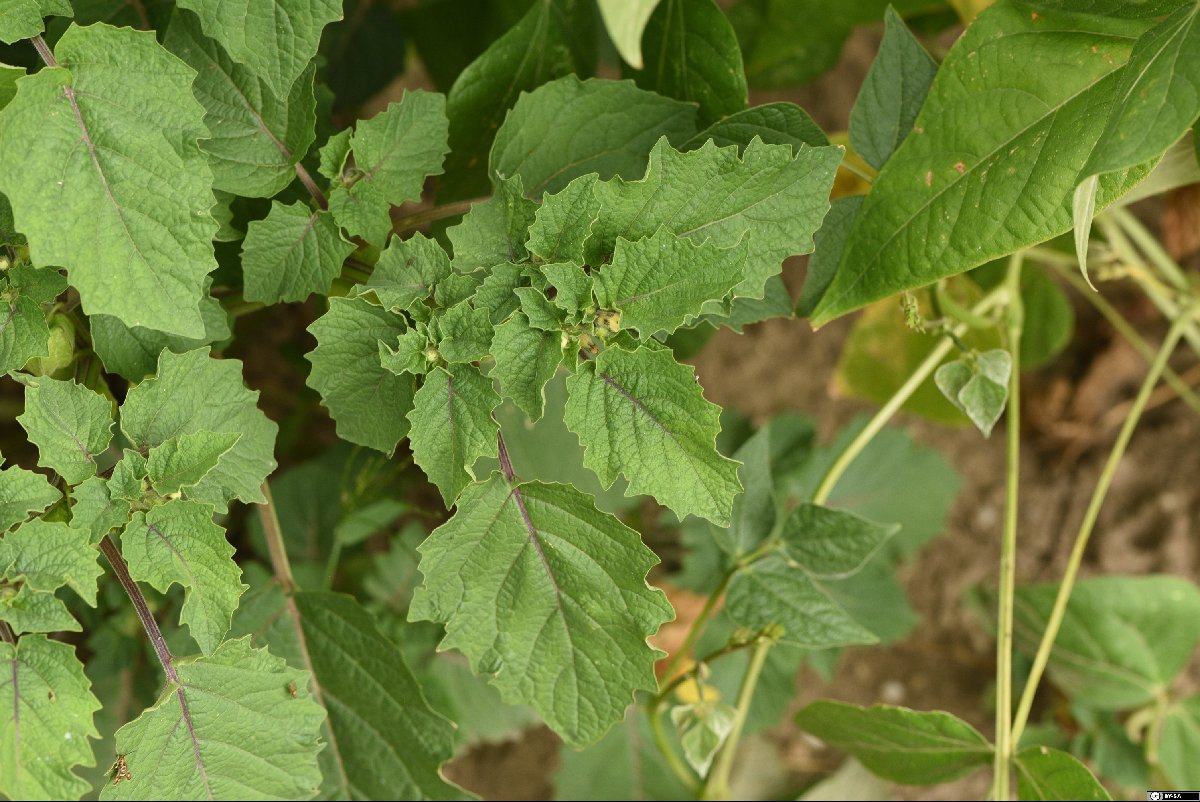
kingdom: Plantae
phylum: Tracheophyta
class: Magnoliopsida
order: Solanales
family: Solanaceae
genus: Physalis
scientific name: Physalis grisea
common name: Dwarf cape-gooseberry
